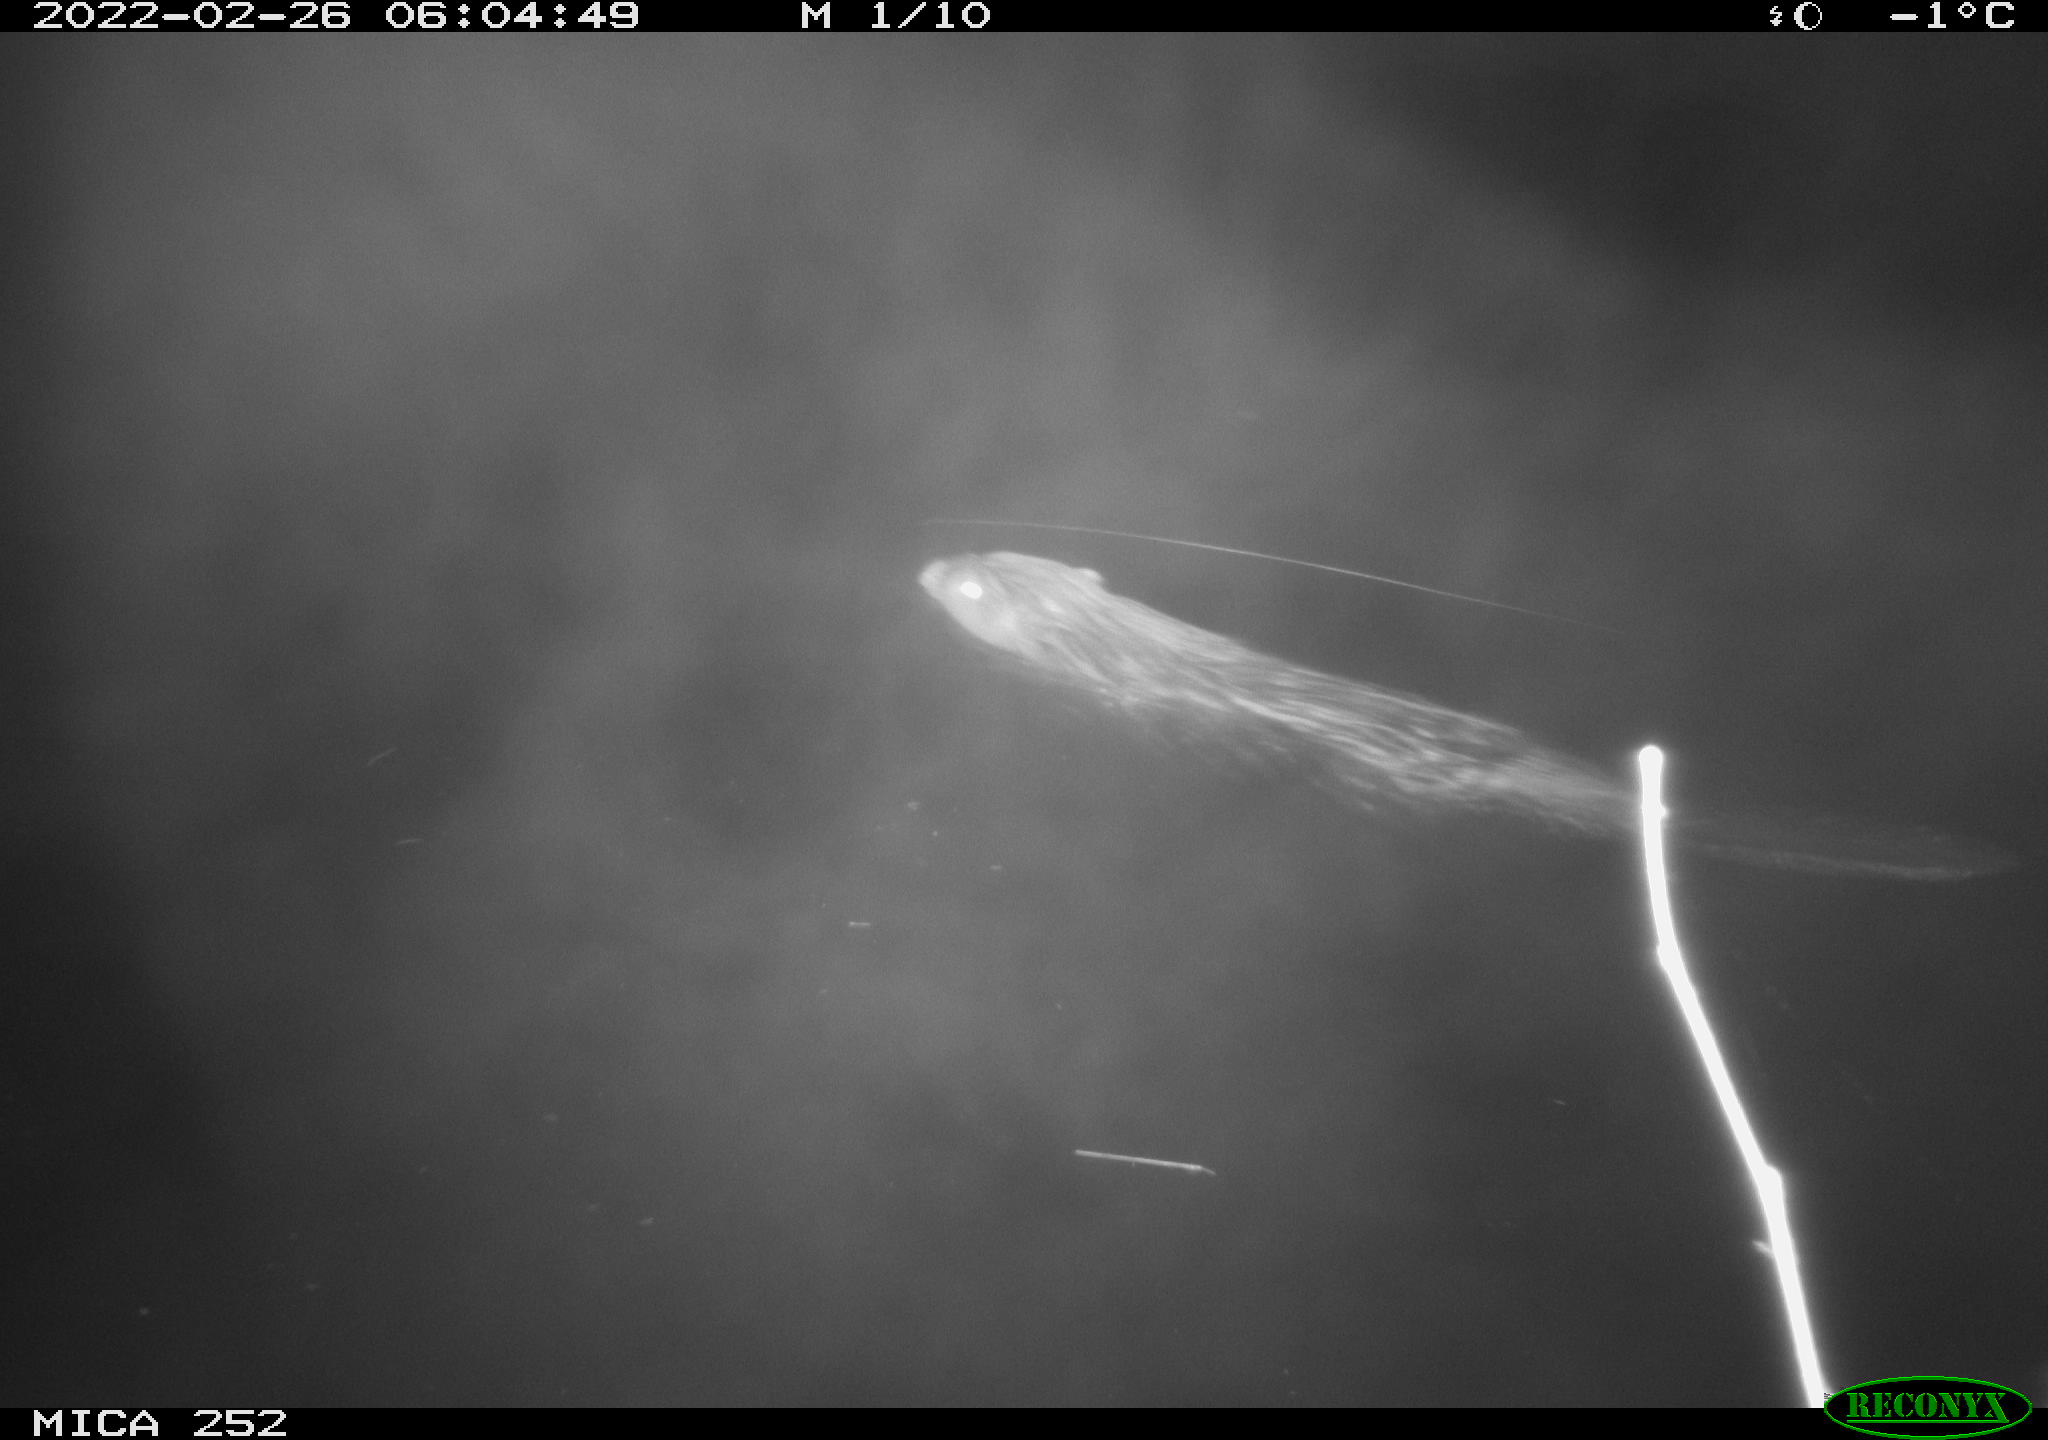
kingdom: Animalia
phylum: Chordata
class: Mammalia
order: Rodentia
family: Castoridae
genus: Castor
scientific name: Castor fiber
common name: Eurasian beaver
